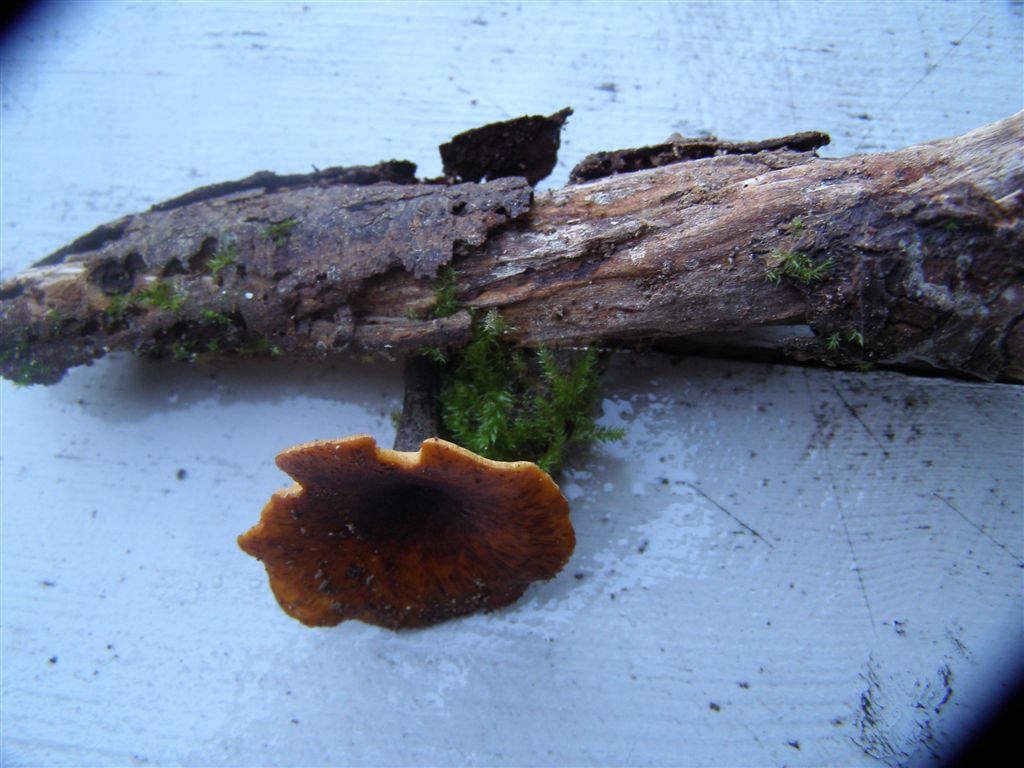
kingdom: Fungi
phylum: Basidiomycota
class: Agaricomycetes
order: Polyporales
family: Polyporaceae
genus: Picipes
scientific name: Picipes tubaeformis
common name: trompet-stilkporesvamp
